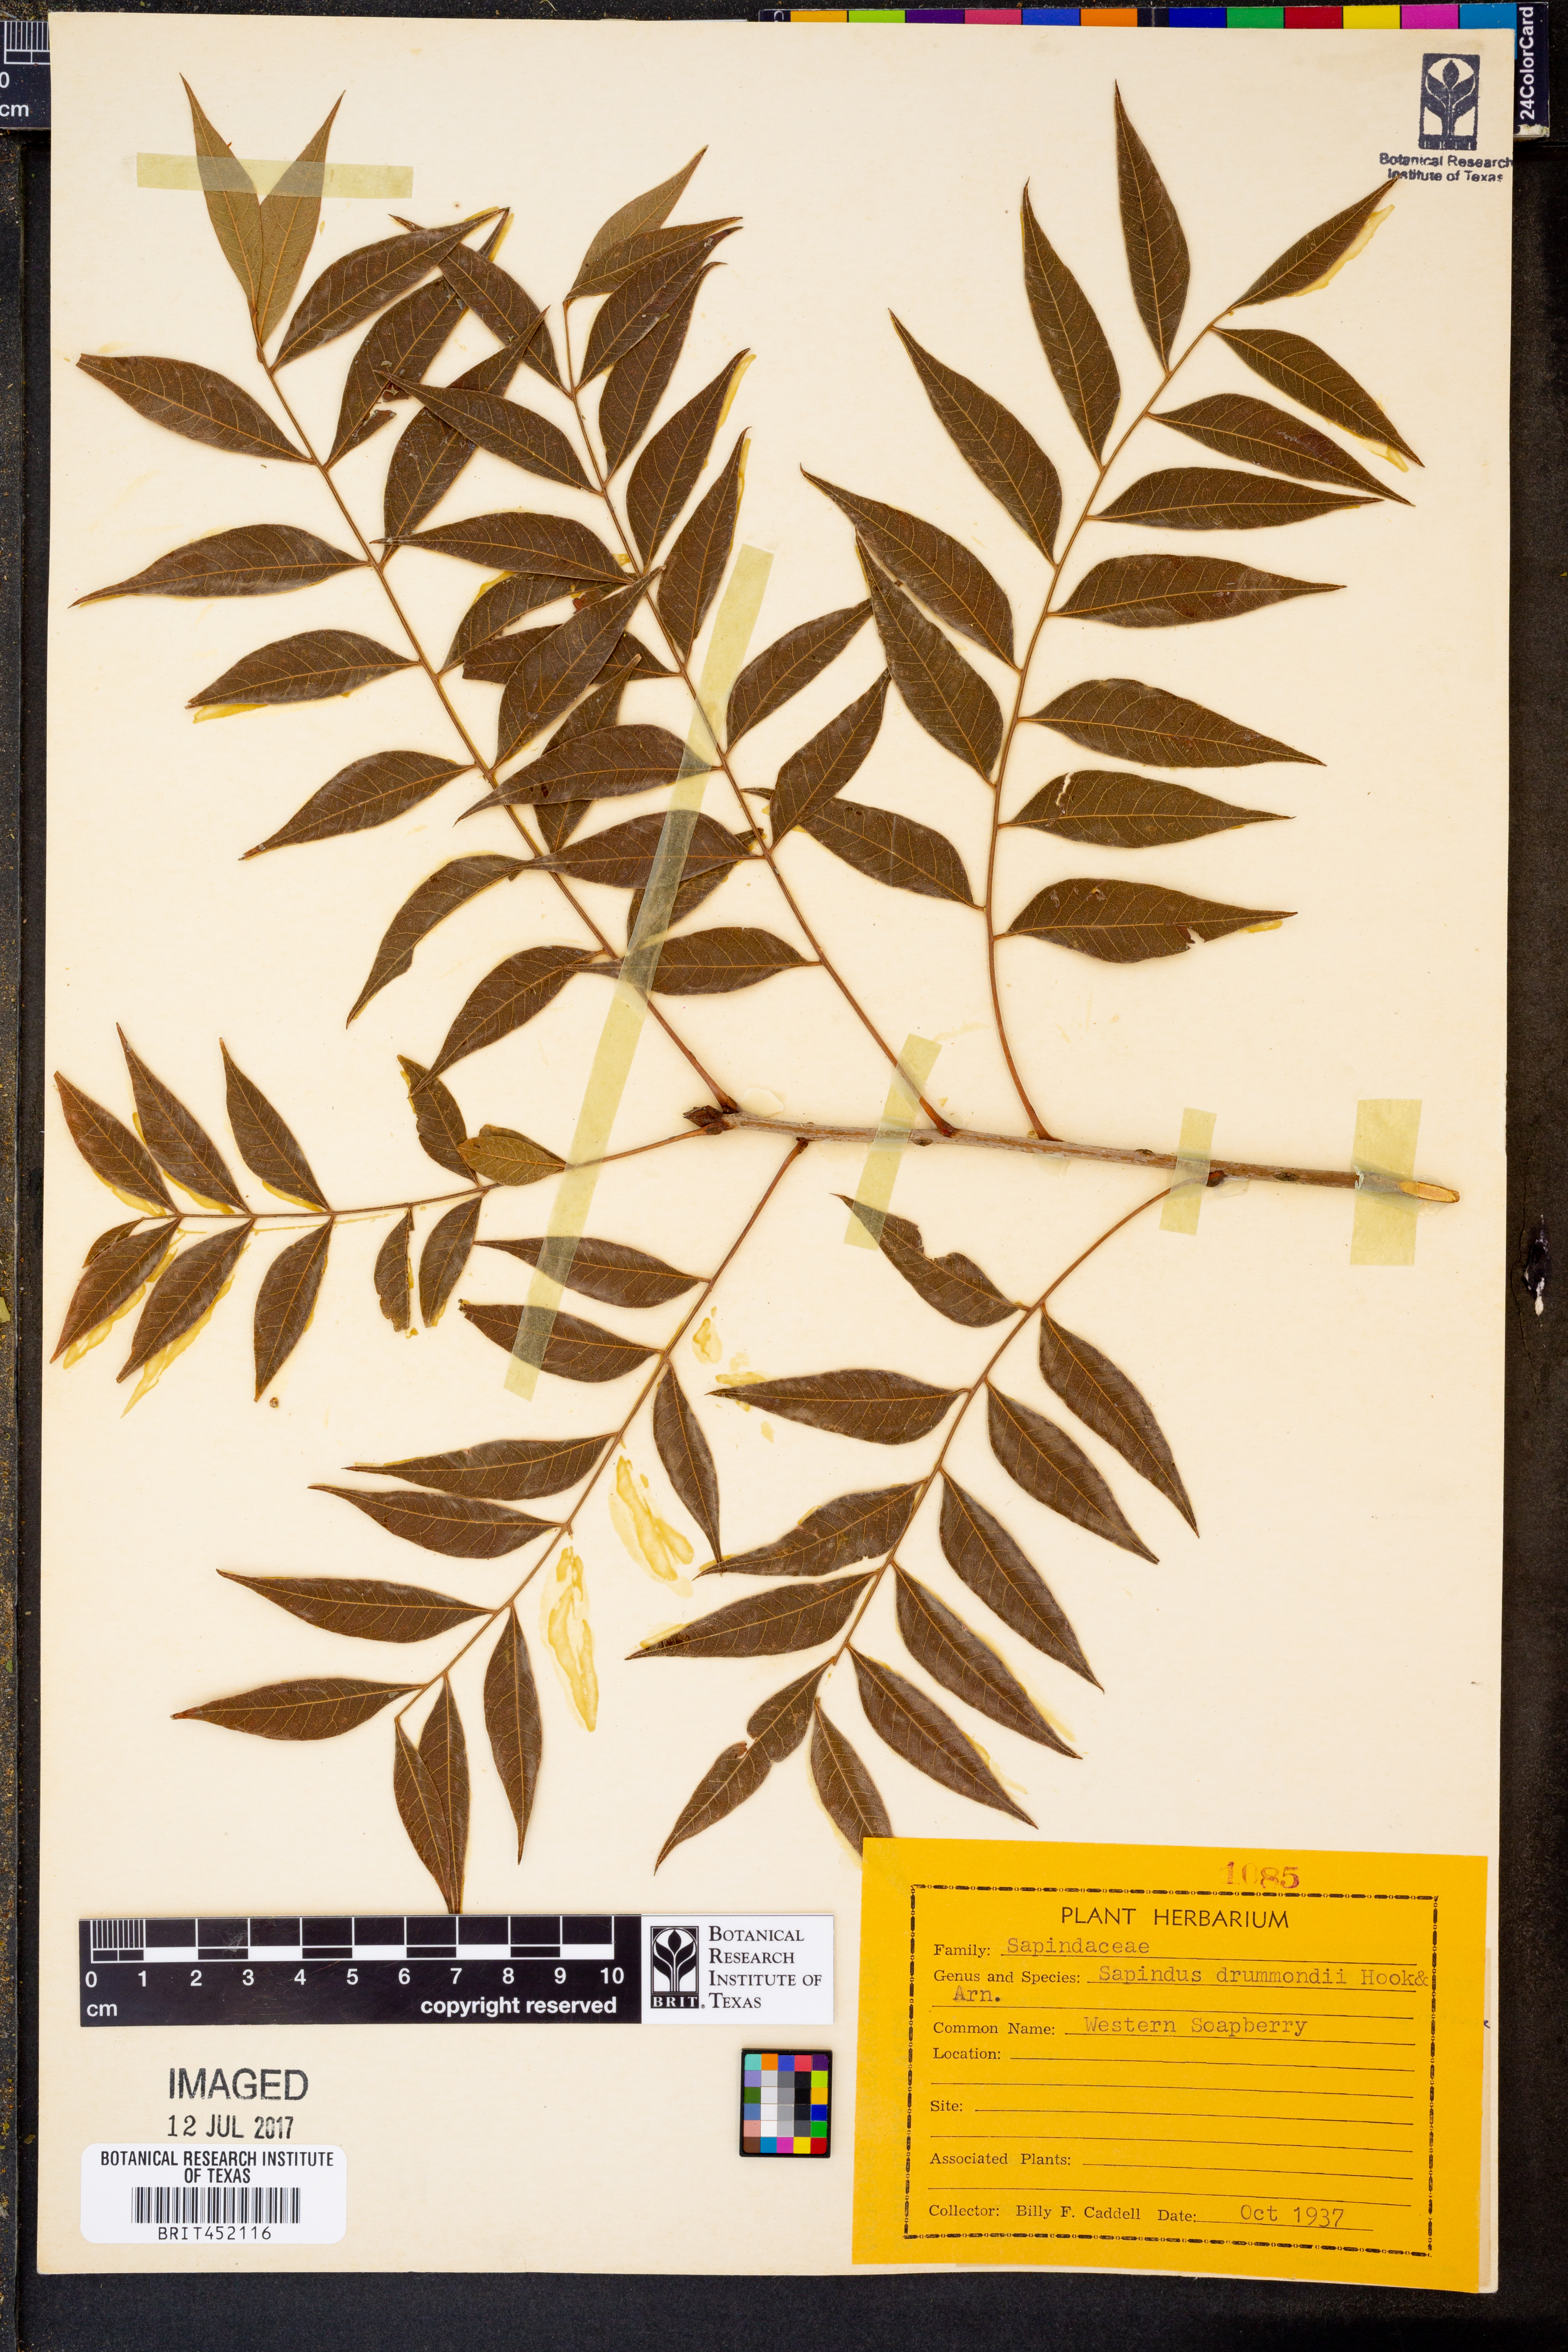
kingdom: Plantae
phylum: Tracheophyta
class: Magnoliopsida
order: Sapindales
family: Sapindaceae
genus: Sapindus
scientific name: Sapindus drummondii
